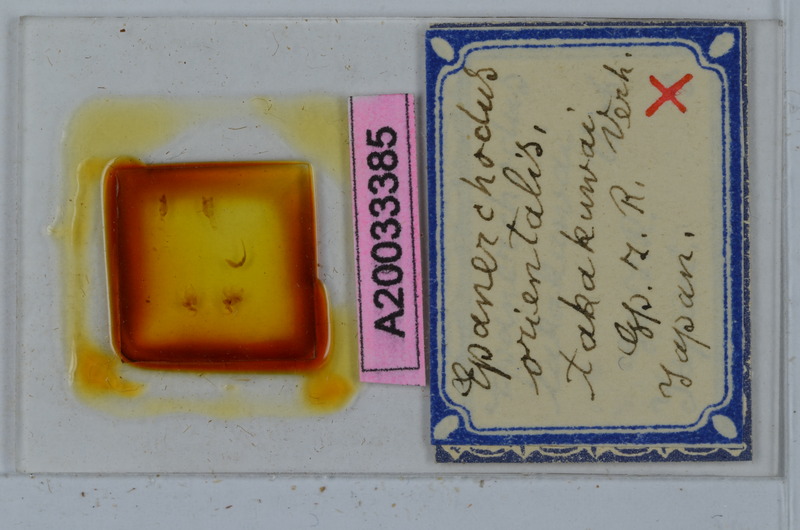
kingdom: Animalia
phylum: Arthropoda
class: Diplopoda
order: Polydesmida
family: Polydesmidae
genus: Epanerchodus
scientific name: Epanerchodus orientalis
